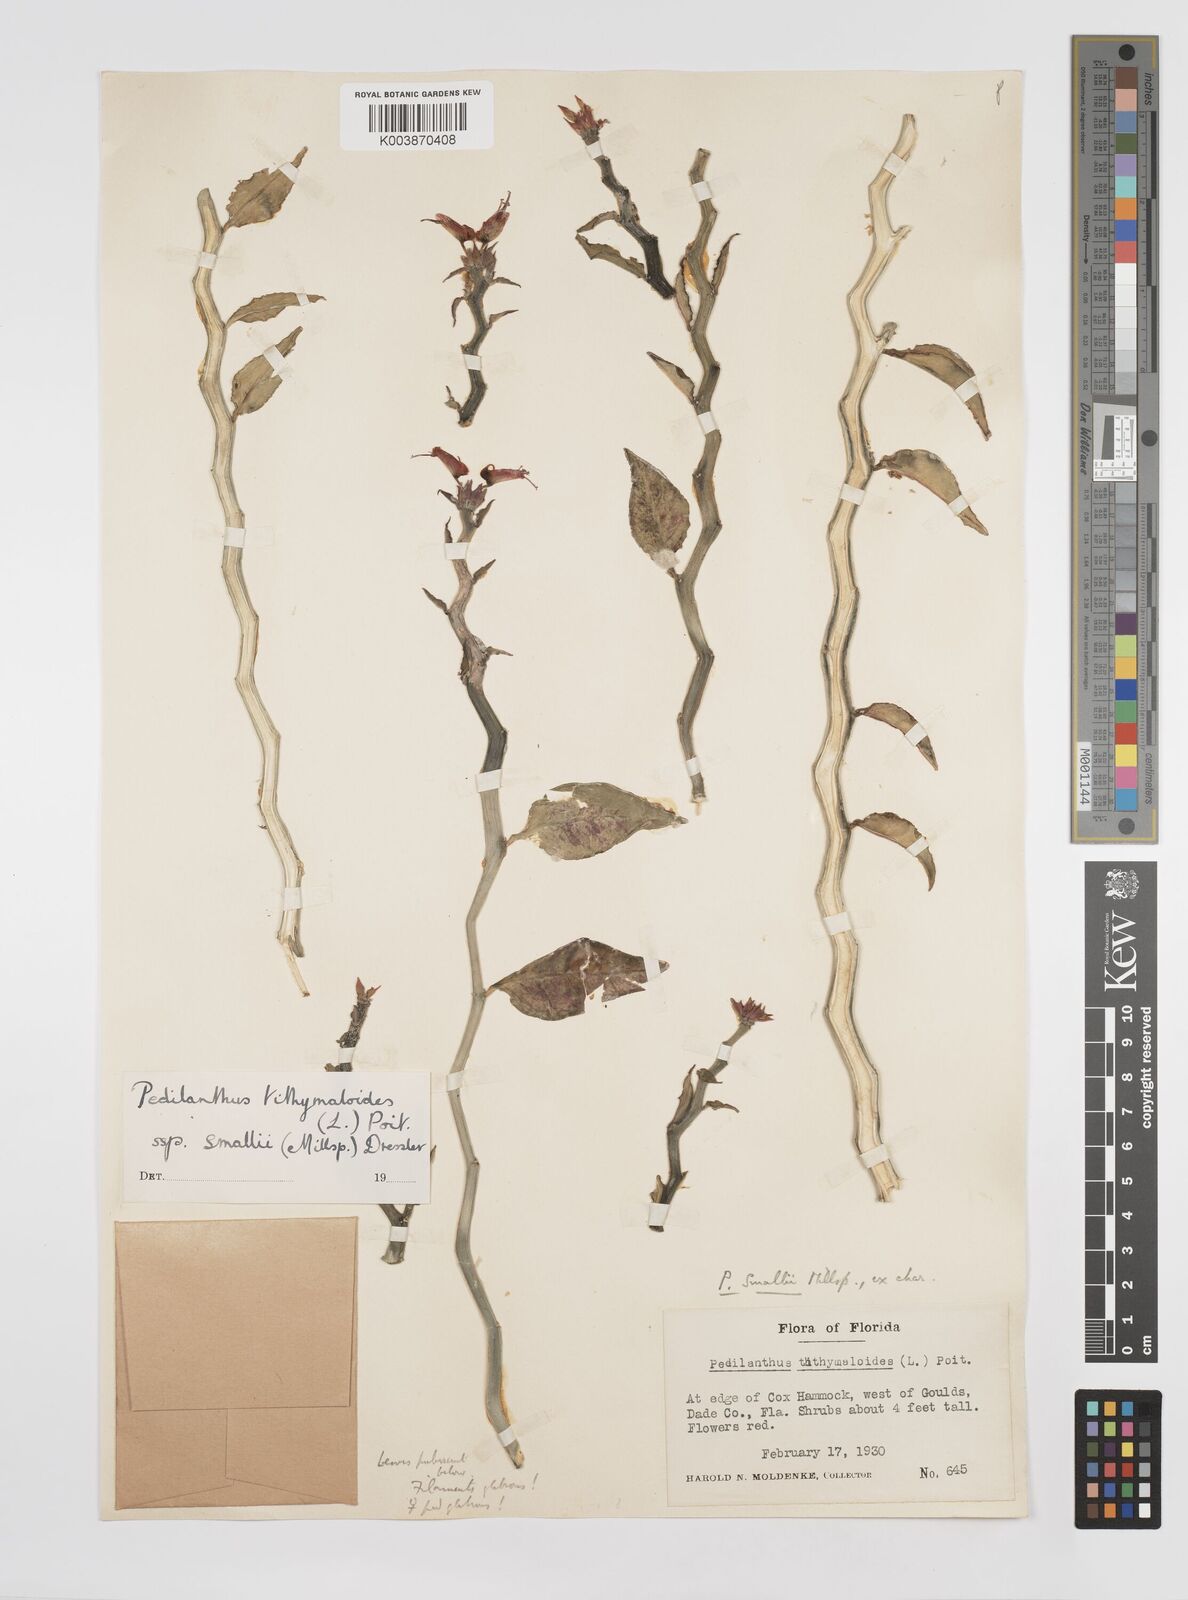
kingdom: Plantae
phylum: Tracheophyta
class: Magnoliopsida
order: Malpighiales
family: Euphorbiaceae
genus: Euphorbia
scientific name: Euphorbia tithymaloides
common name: Slipperplant
